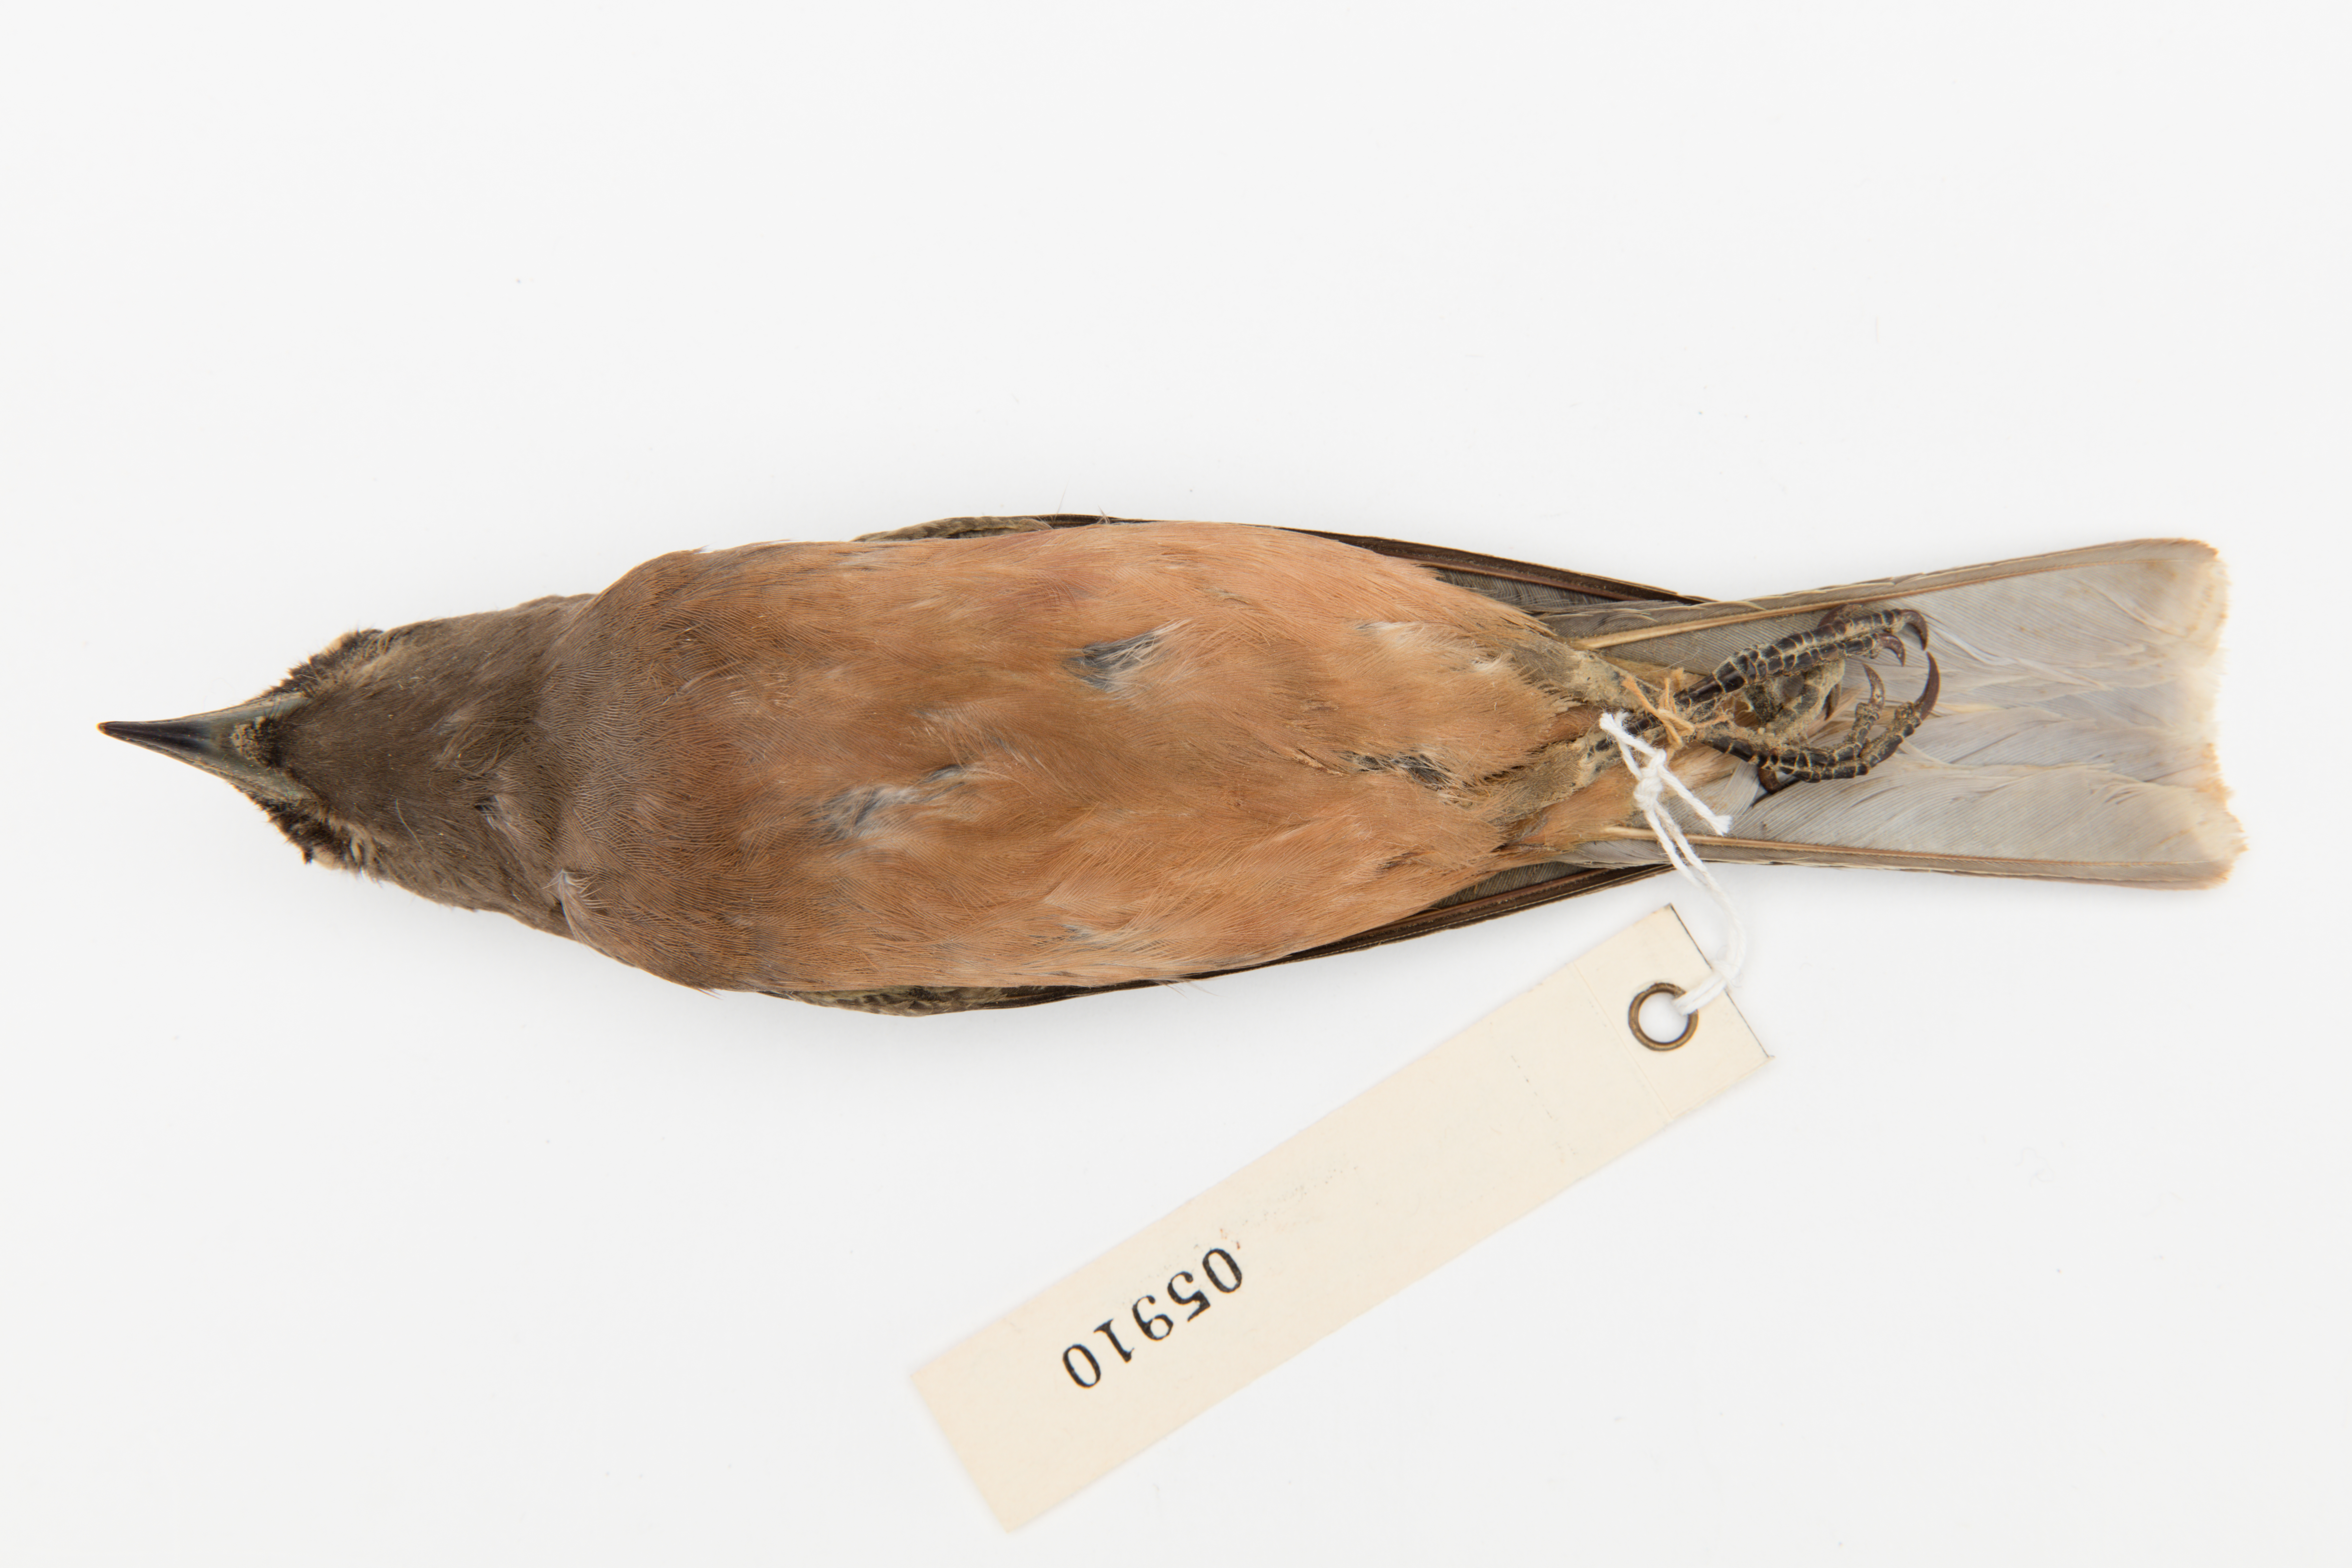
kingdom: Animalia
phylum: Chordata
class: Aves
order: Passeriformes
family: Artamidae
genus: Artamus
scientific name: Artamus superciliosus
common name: White-browed woodswallow
